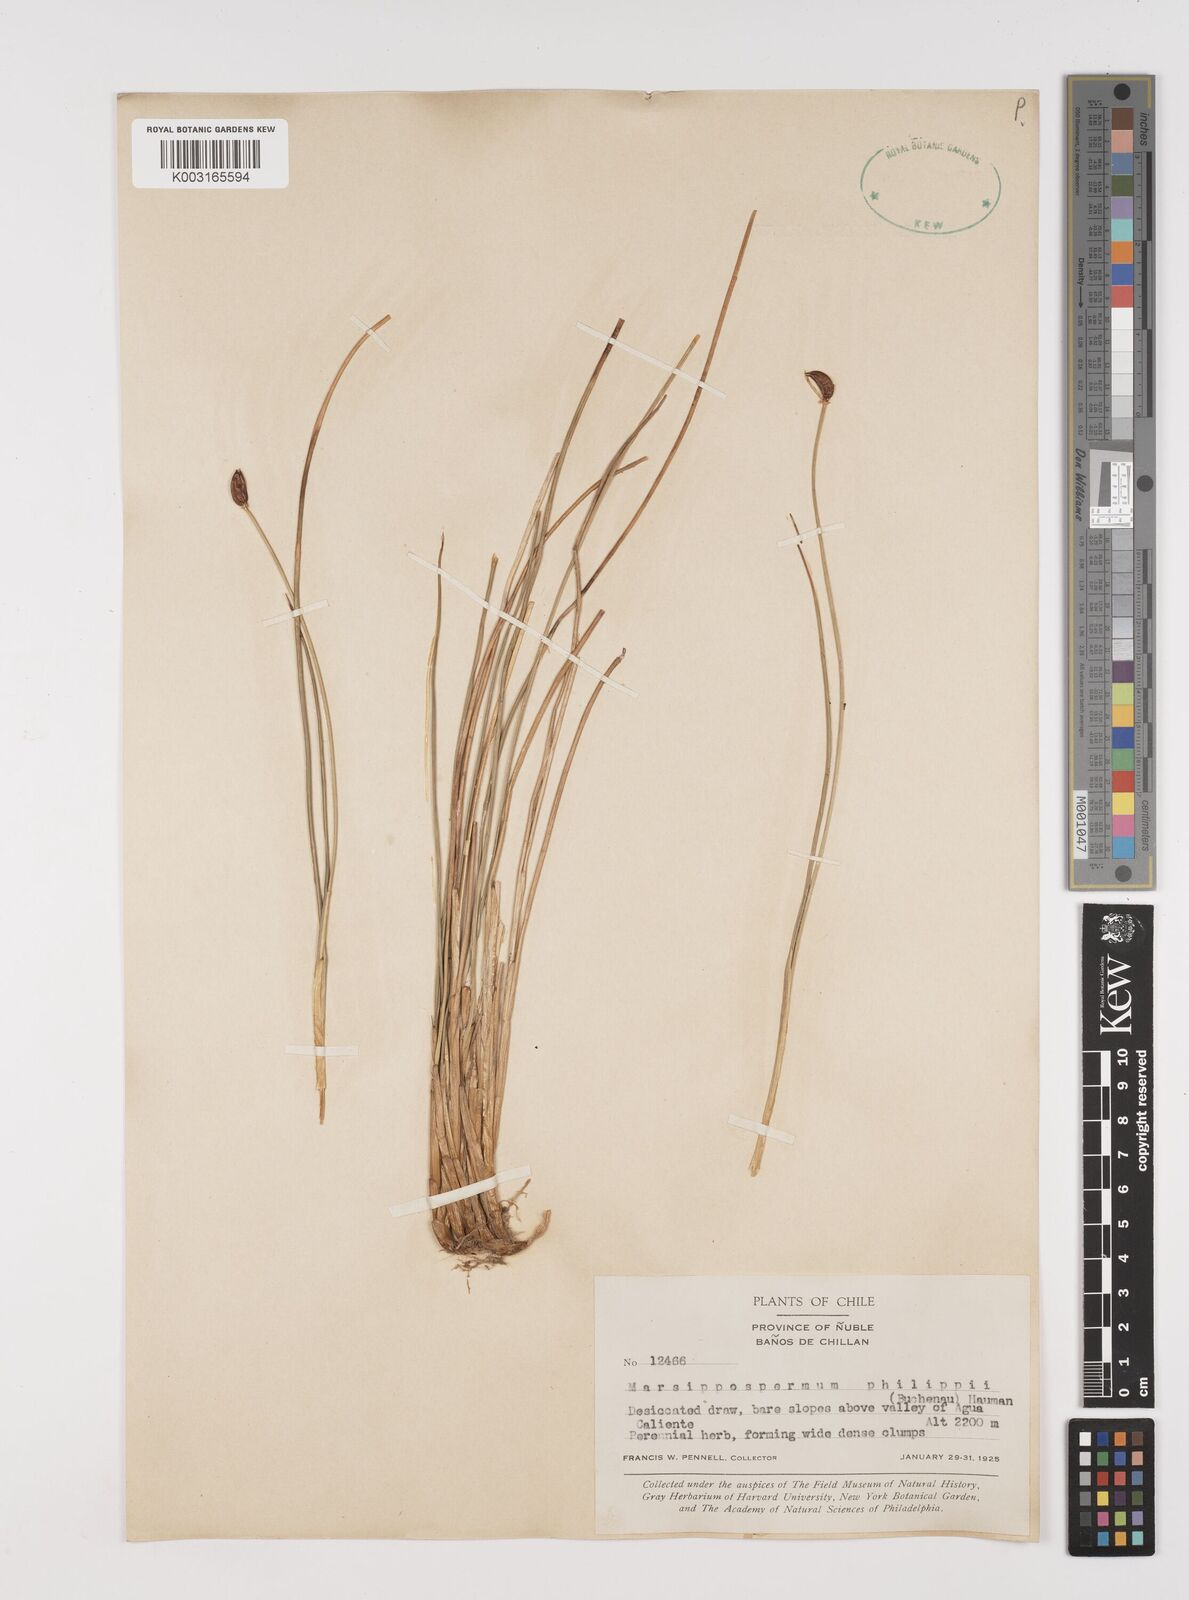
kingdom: Plantae
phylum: Tracheophyta
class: Liliopsida
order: Poales
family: Juncaceae
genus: Marsippospermum
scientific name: Marsippospermum philippii
